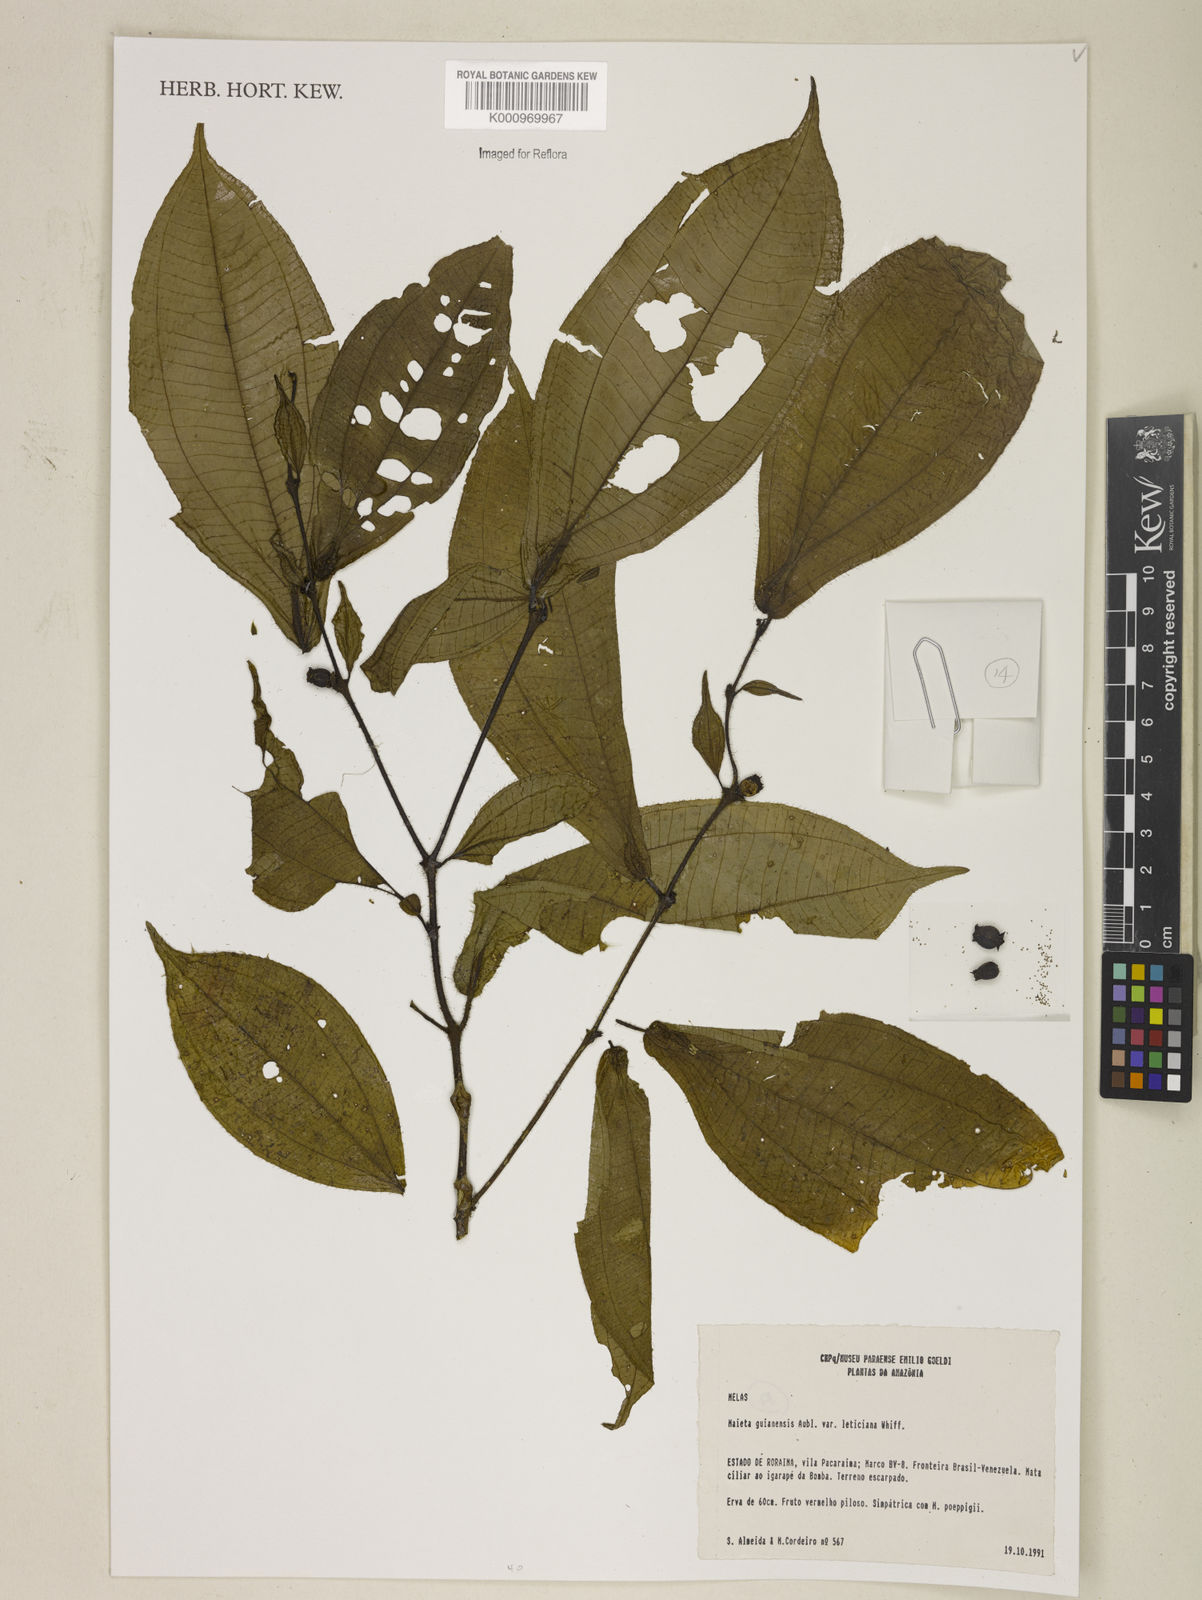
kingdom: Plantae
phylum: Tracheophyta
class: Magnoliopsida
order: Myrtales
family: Melastomataceae
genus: Miconia
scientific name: Miconia mayeta
